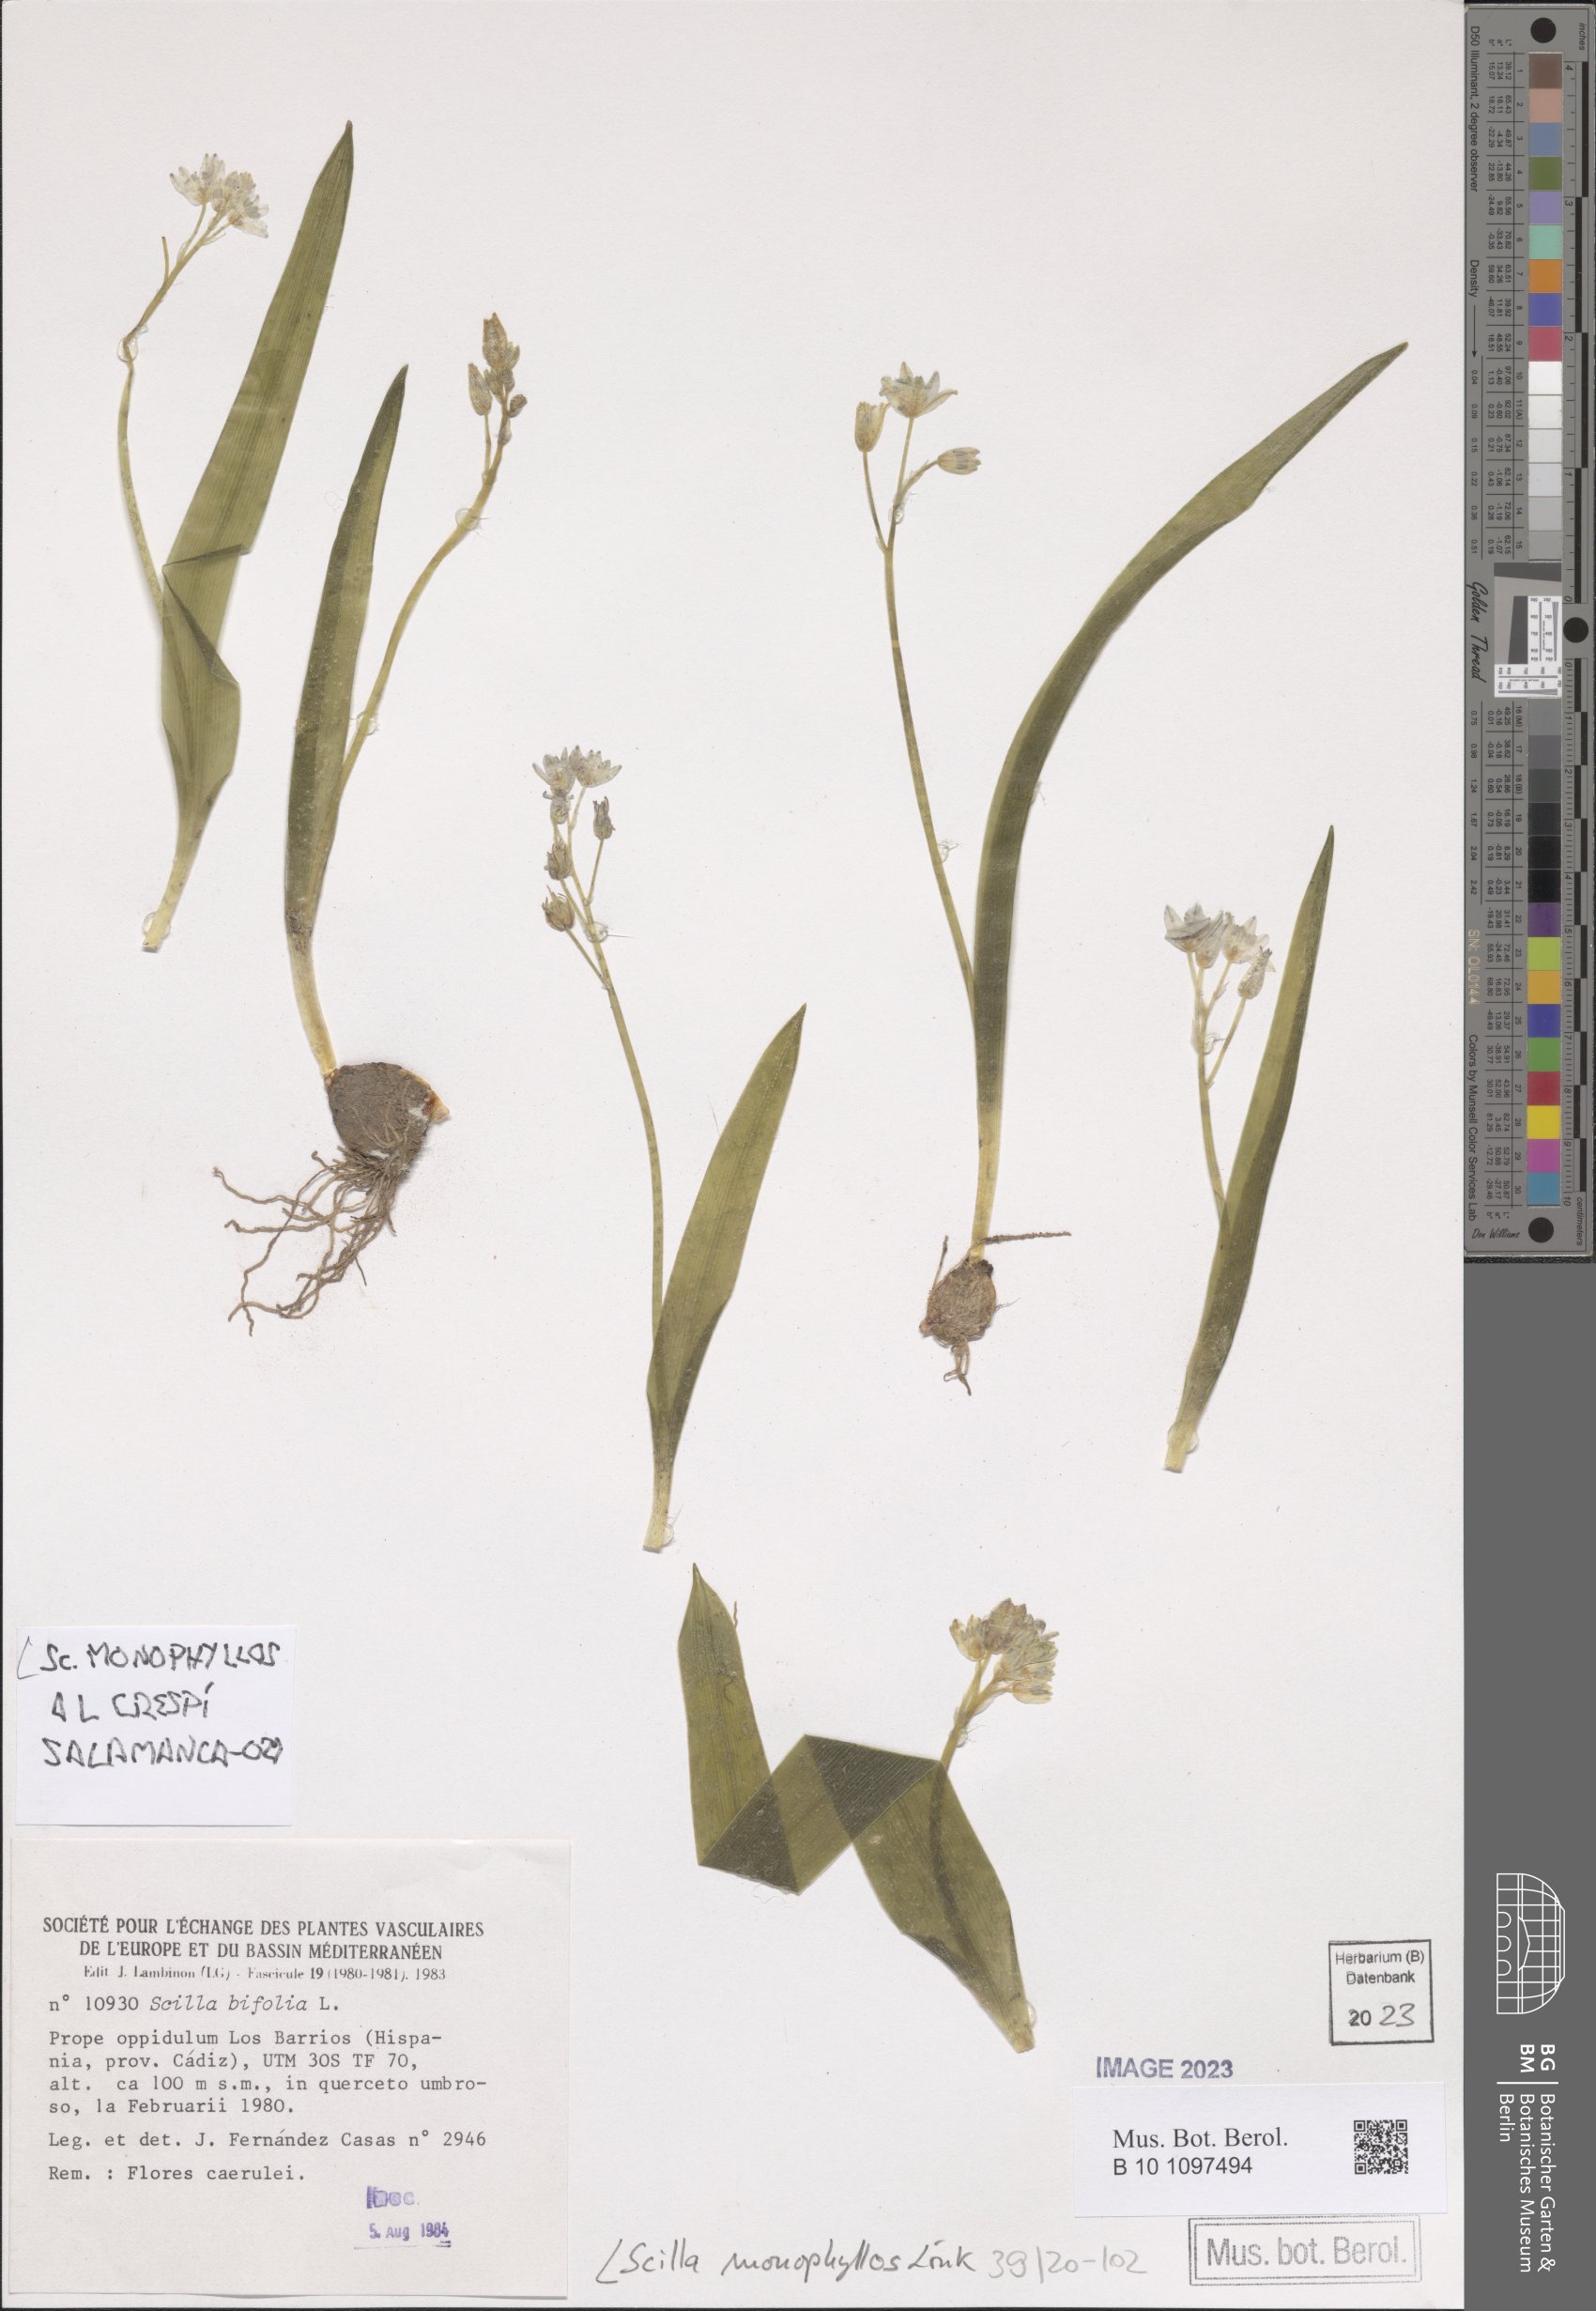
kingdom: Plantae
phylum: Tracheophyta
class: Liliopsida
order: Asparagales
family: Asparagaceae
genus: Scilla
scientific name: Scilla monophyllos
